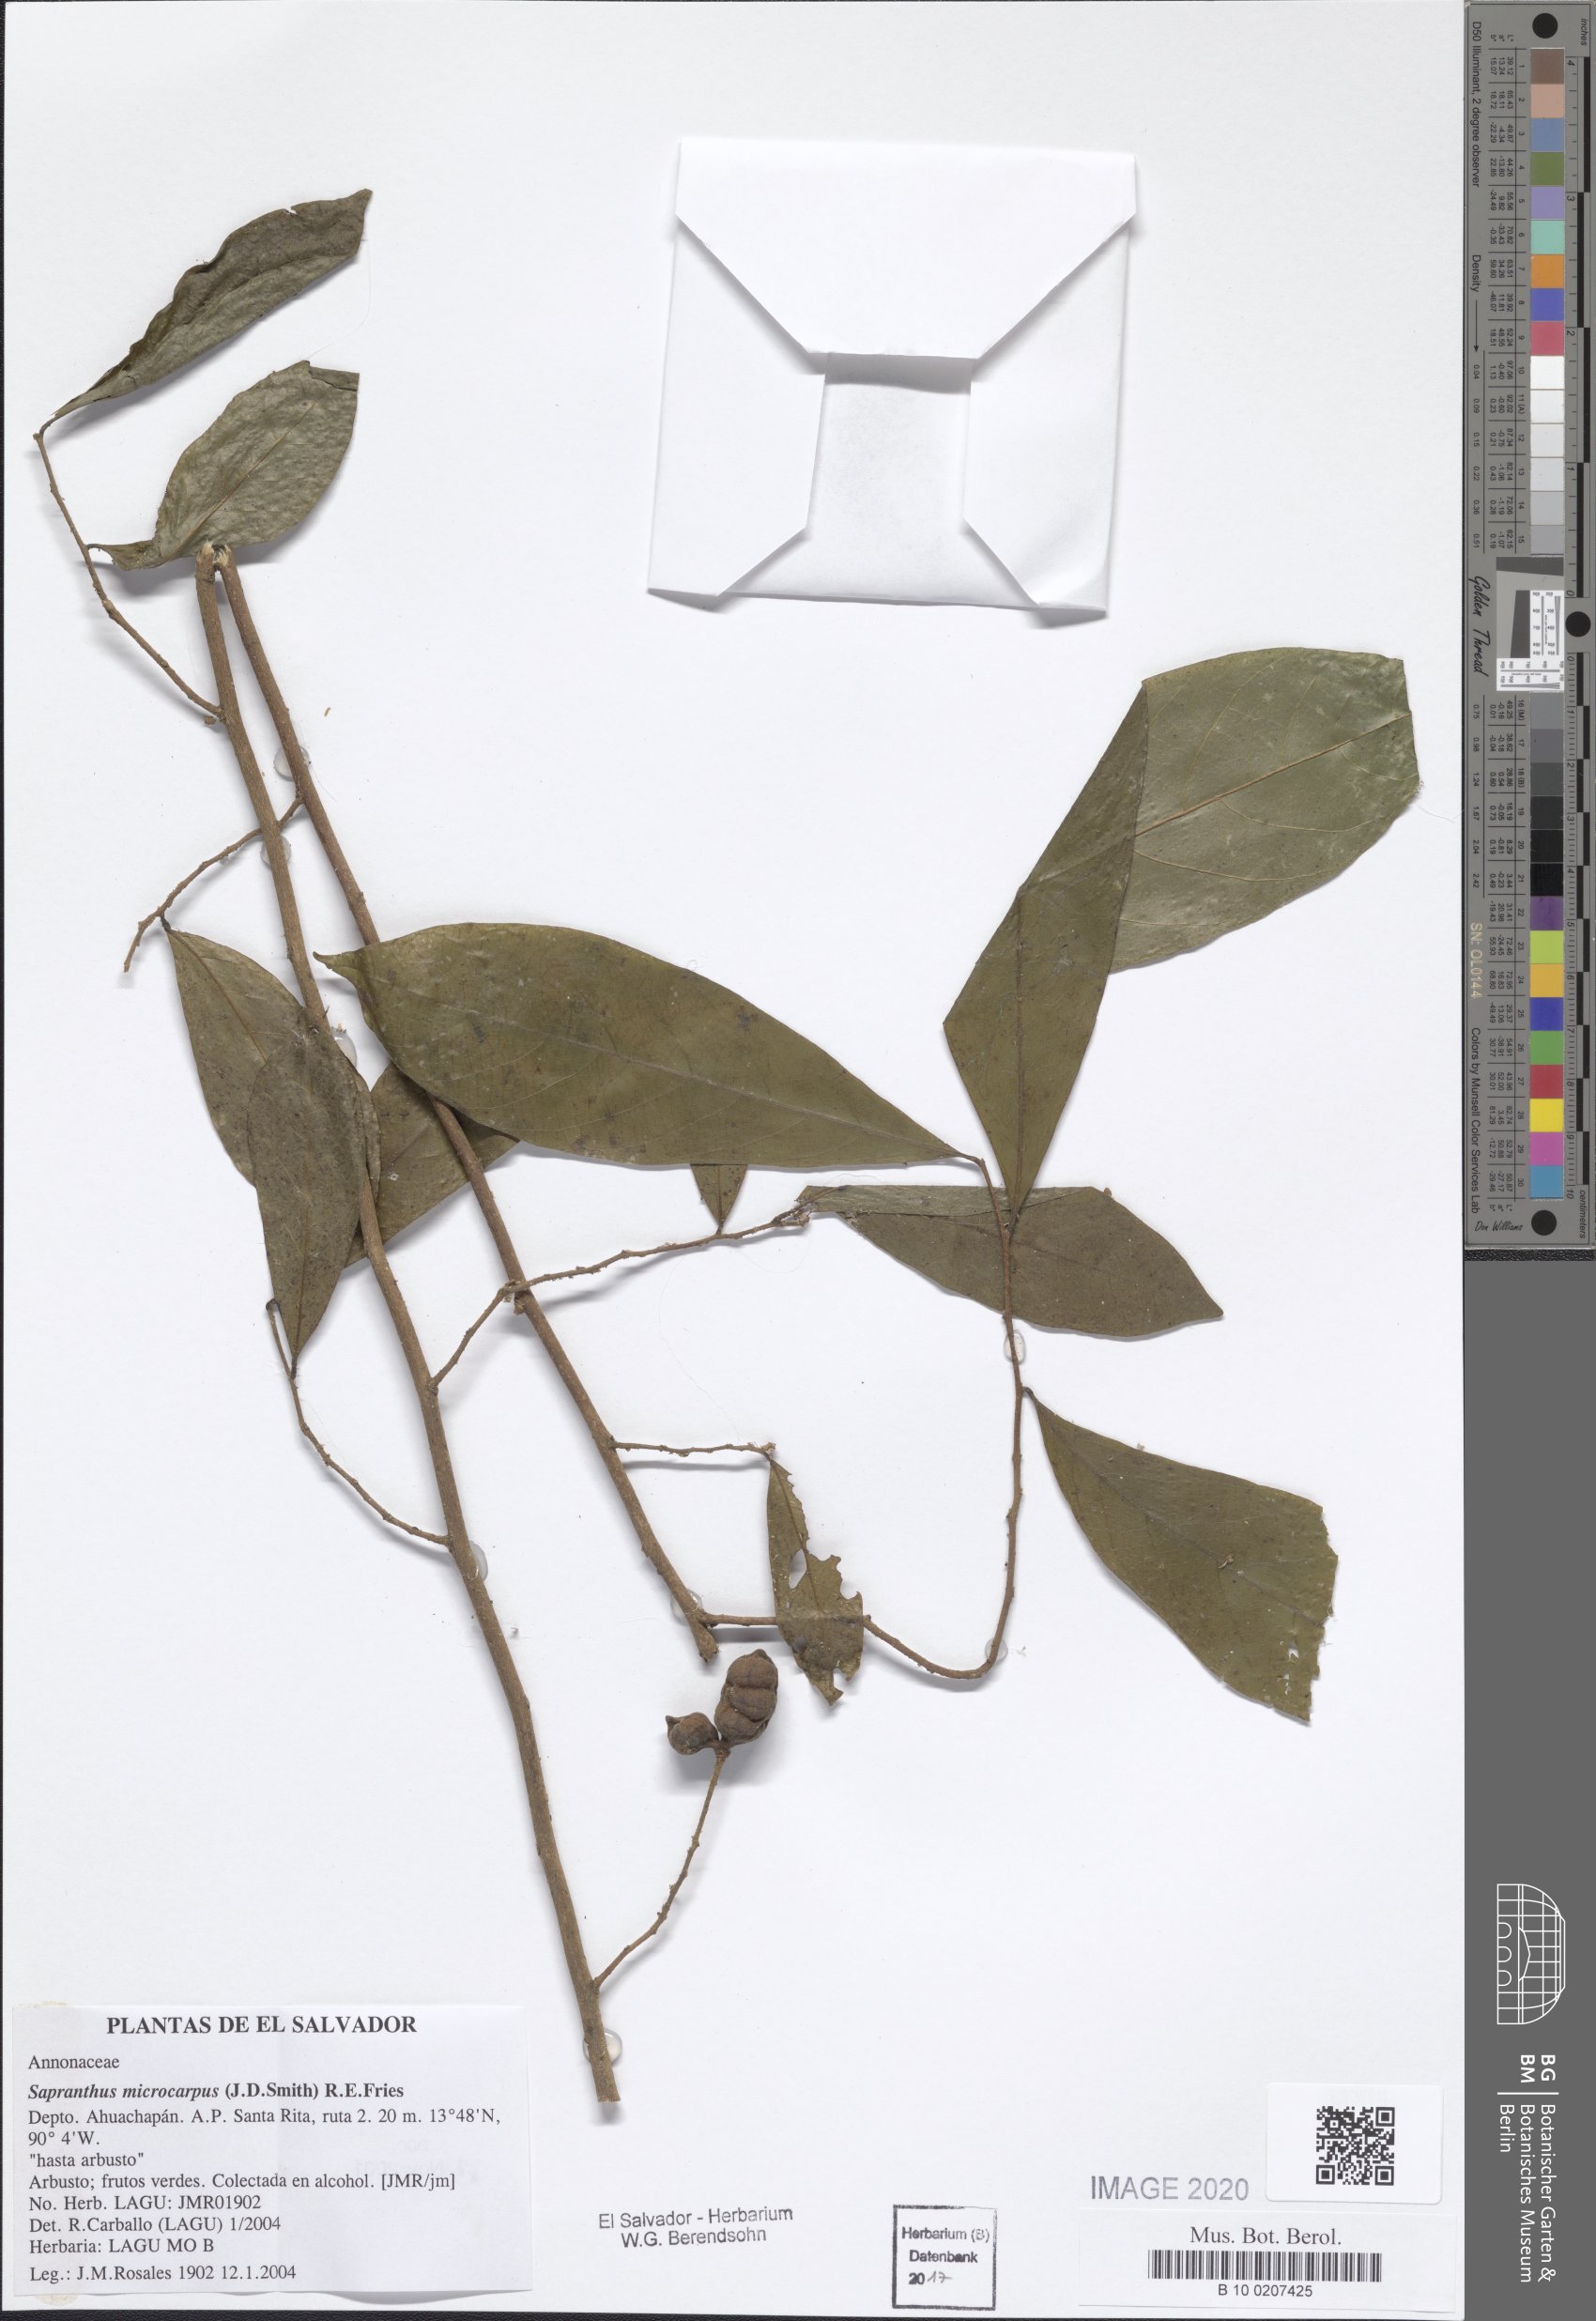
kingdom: Plantae
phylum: Tracheophyta
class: Magnoliopsida
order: Magnoliales
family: Annonaceae
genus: Sapranthus
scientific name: Sapranthus microcarpus
